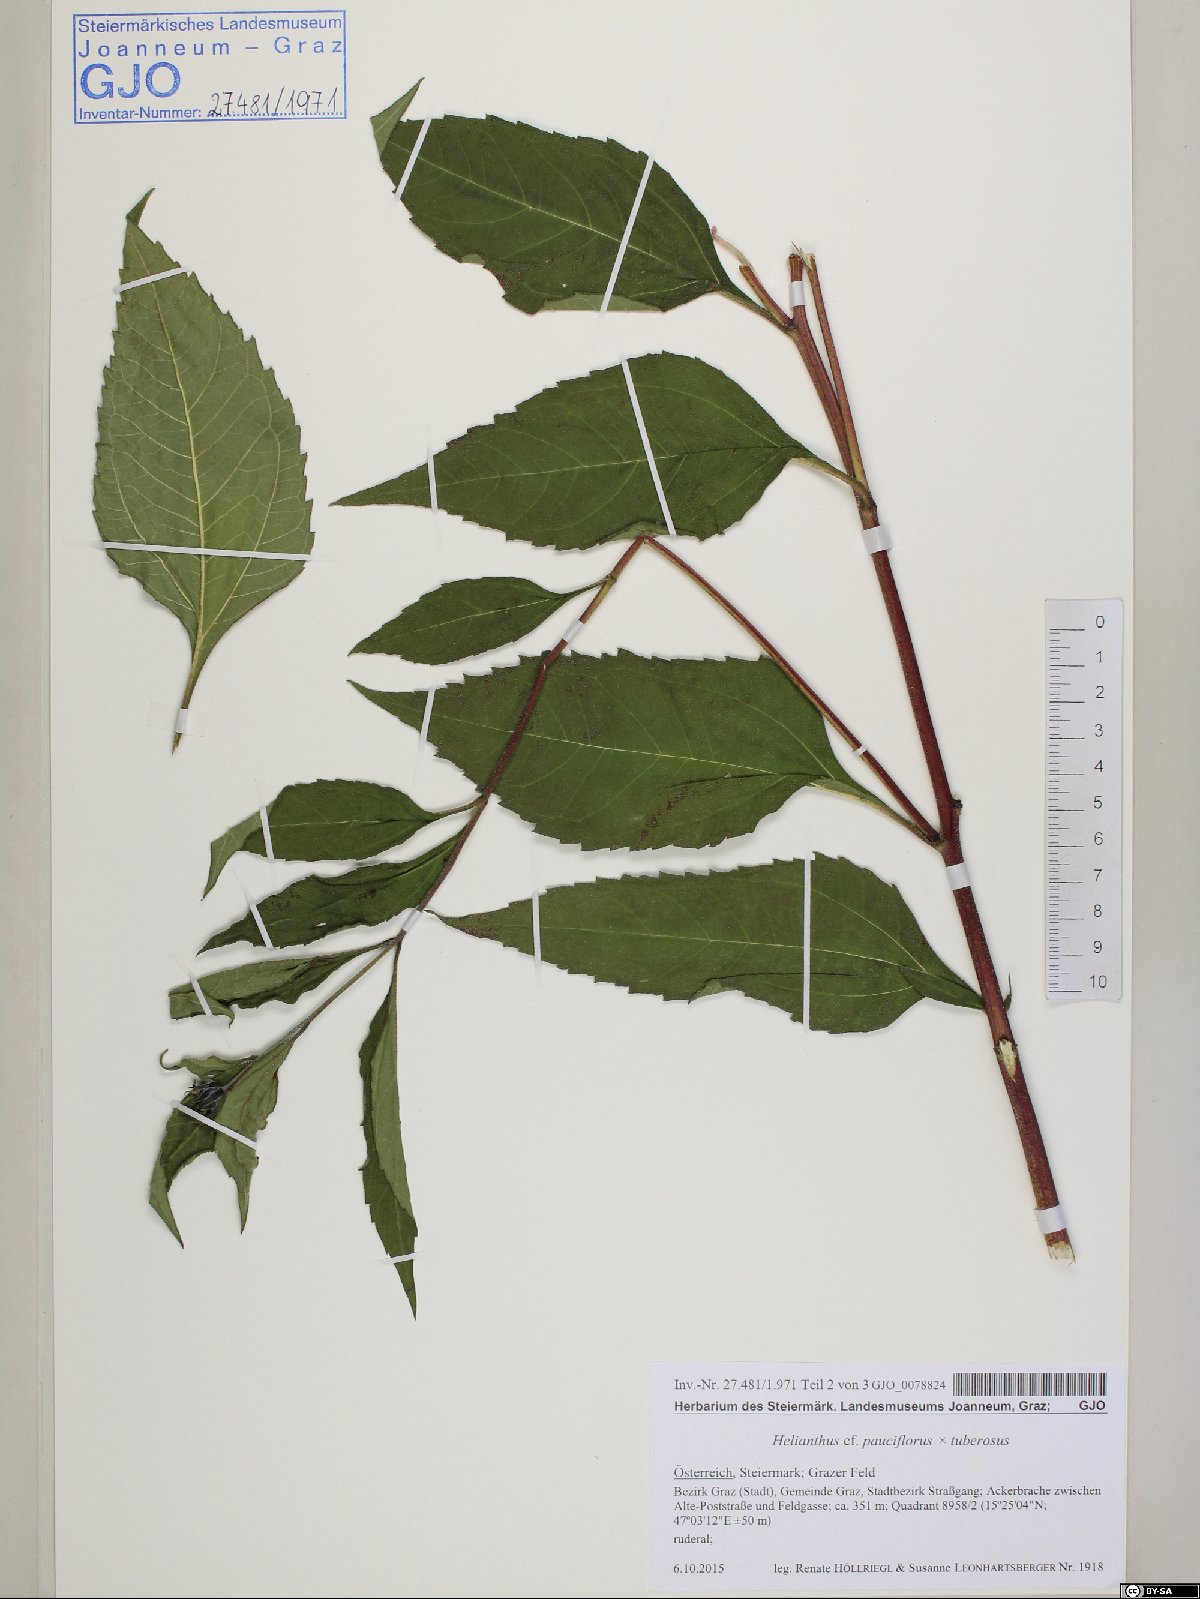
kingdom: Plantae
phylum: Tracheophyta
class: Magnoliopsida
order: Asterales
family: Asteraceae
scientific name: Asteraceae
